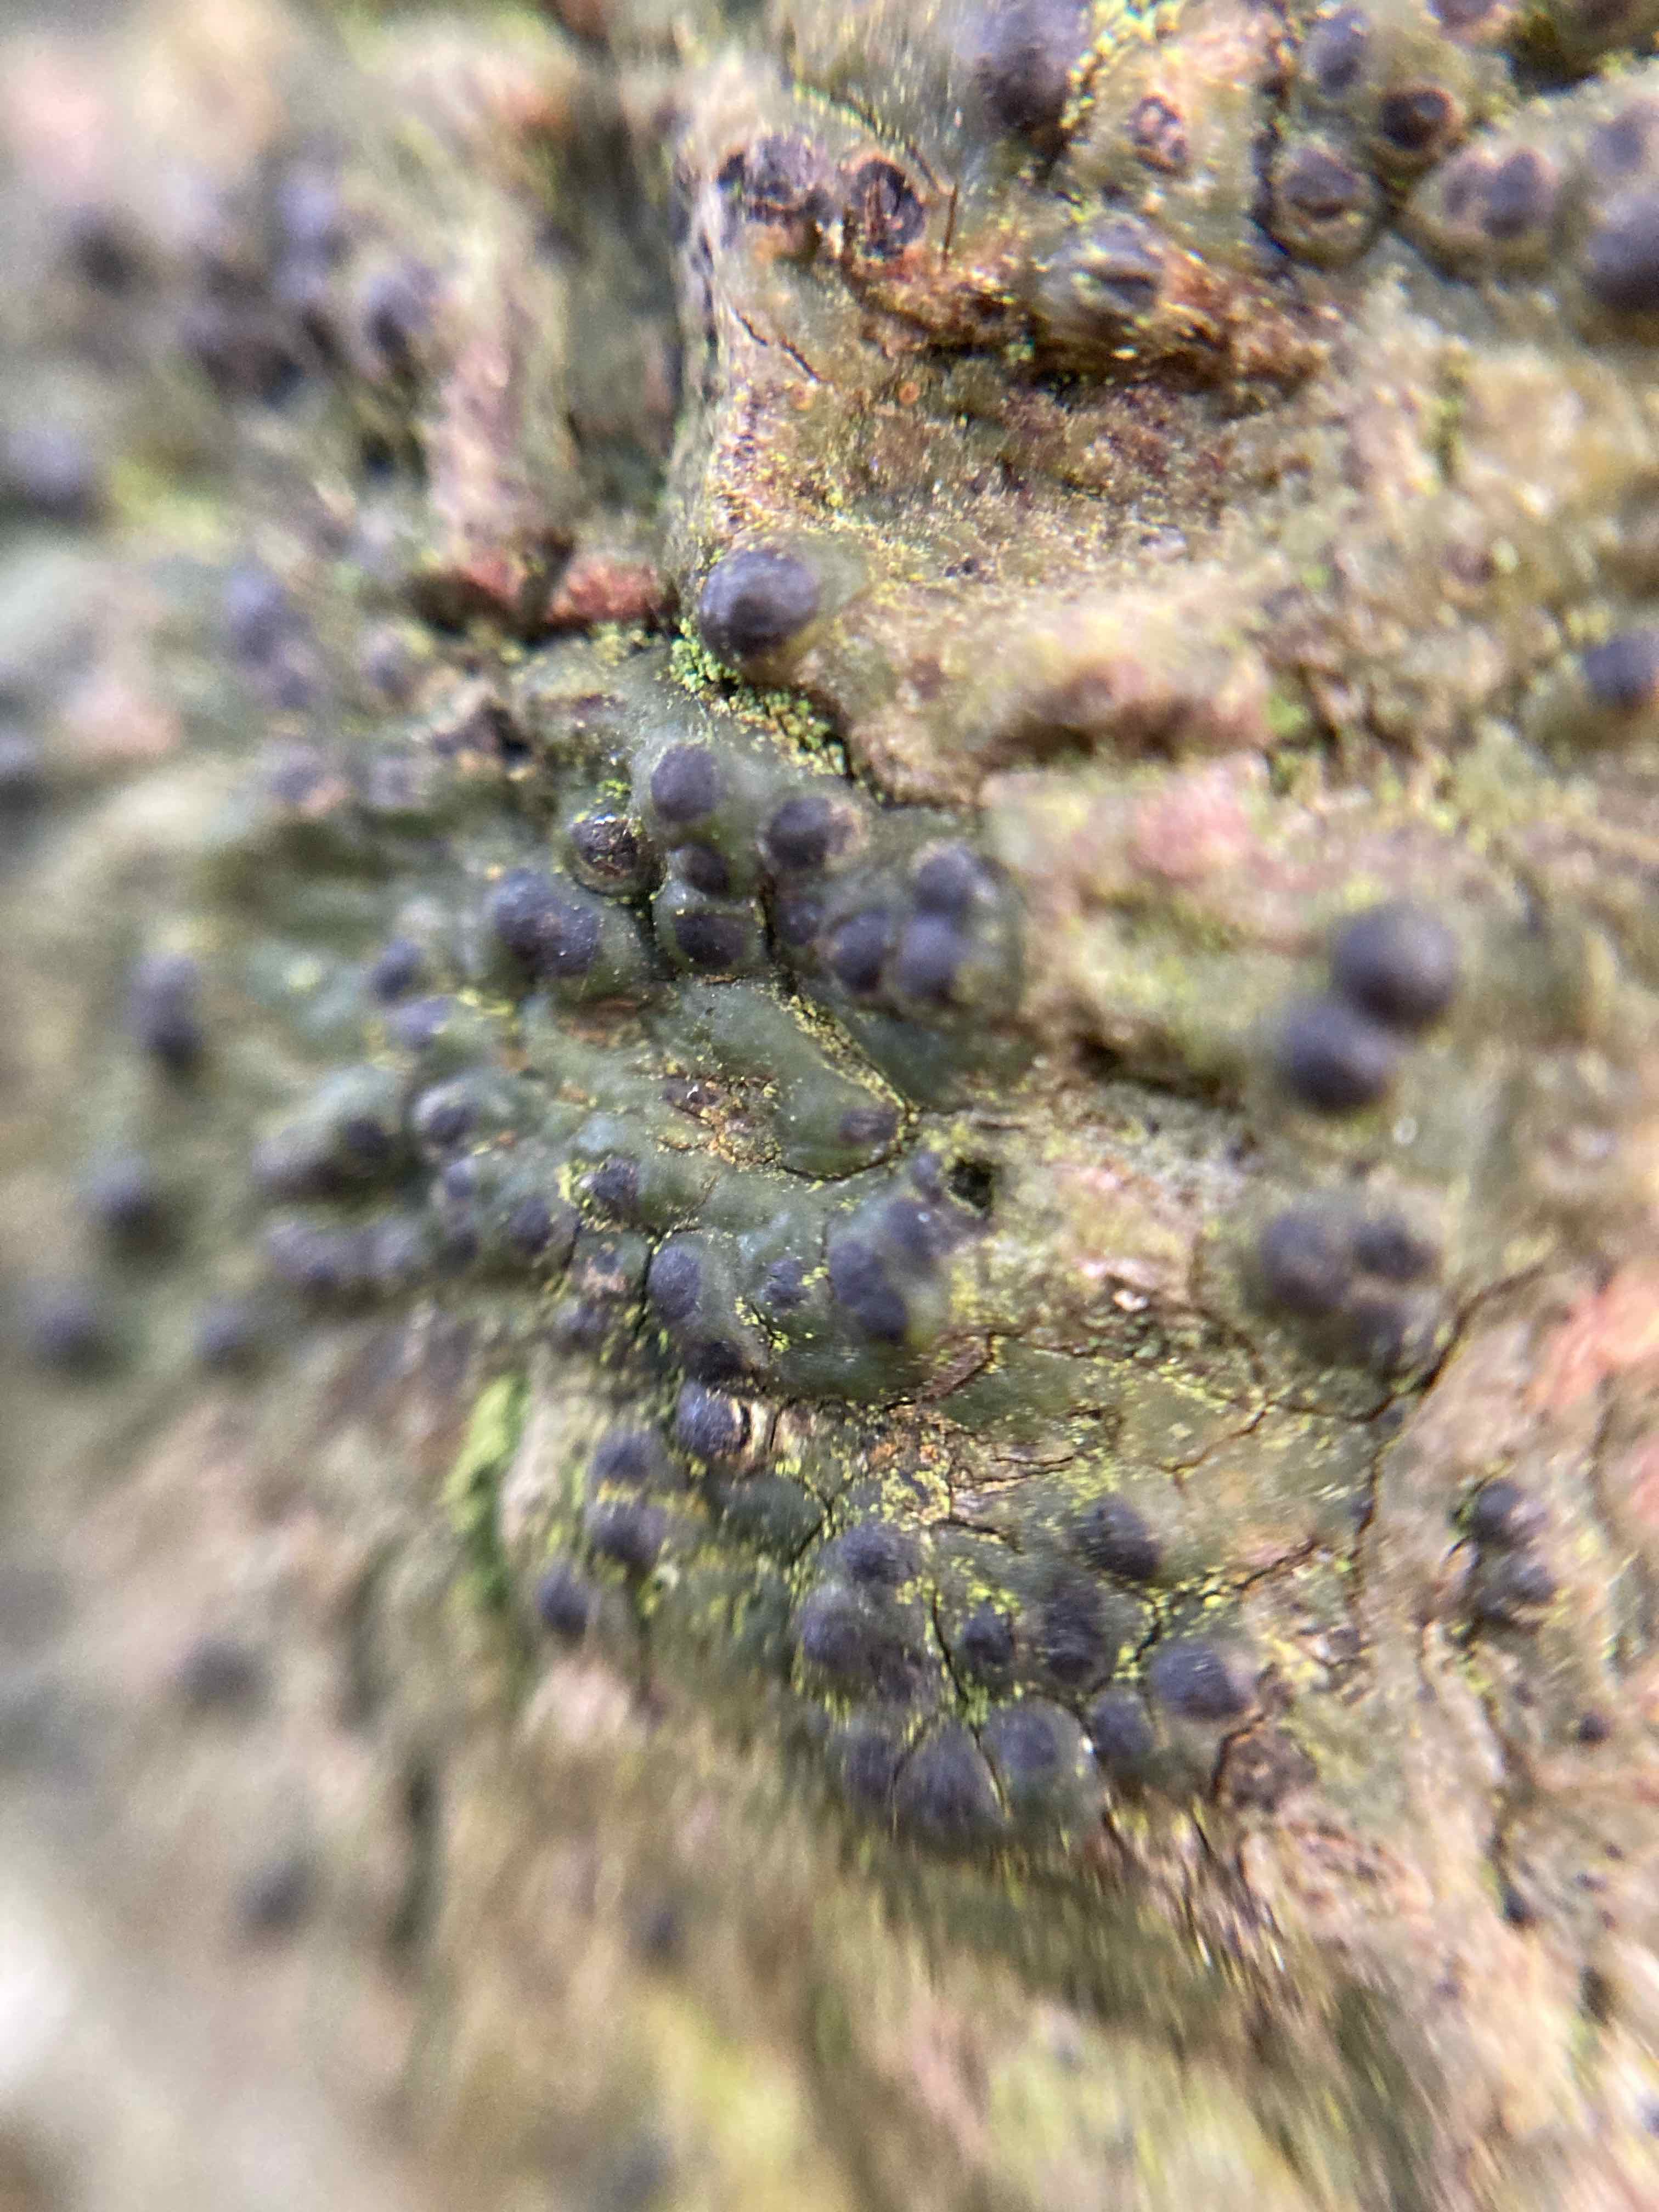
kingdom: Fungi
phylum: Ascomycota
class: Eurotiomycetes
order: Pyrenulales
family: Pyrenulaceae
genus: Pyrenula
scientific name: Pyrenula nitida
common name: glinsende kernelav
